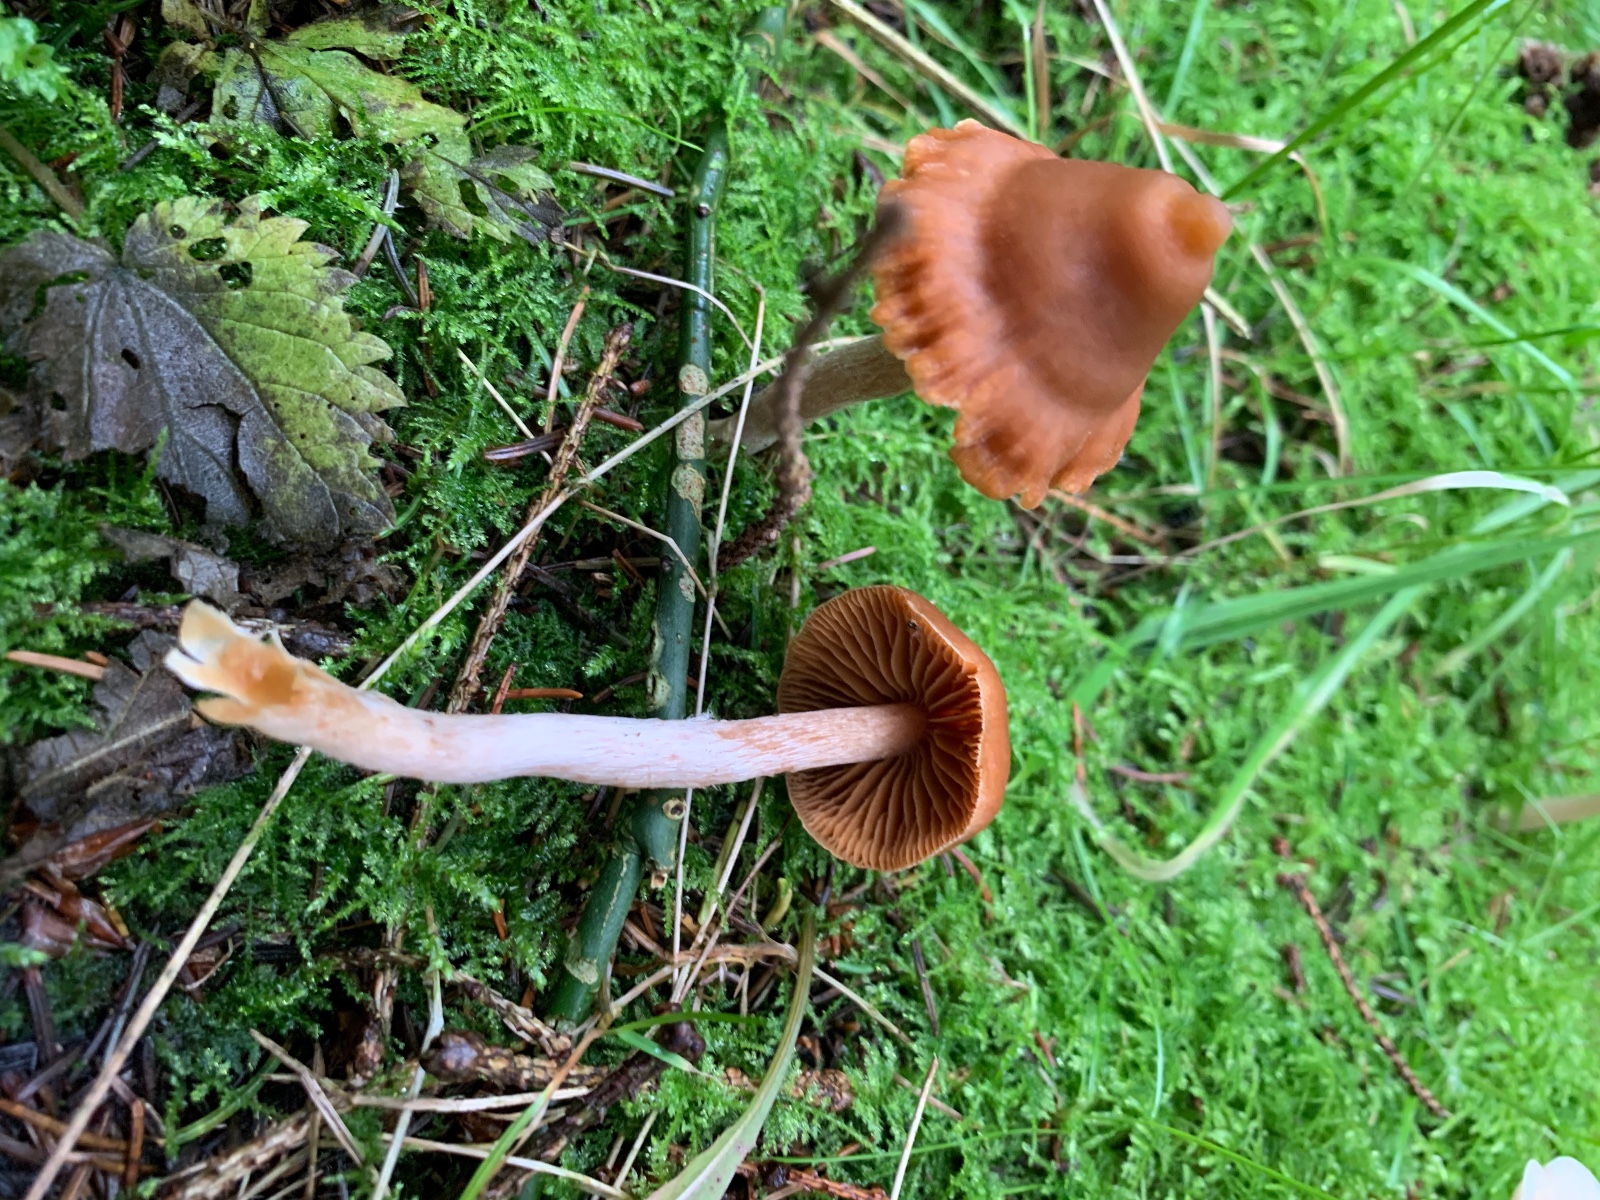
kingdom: Fungi
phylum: Basidiomycota
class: Agaricomycetes
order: Agaricales
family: Cortinariaceae
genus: Cortinarius
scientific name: Cortinarius
